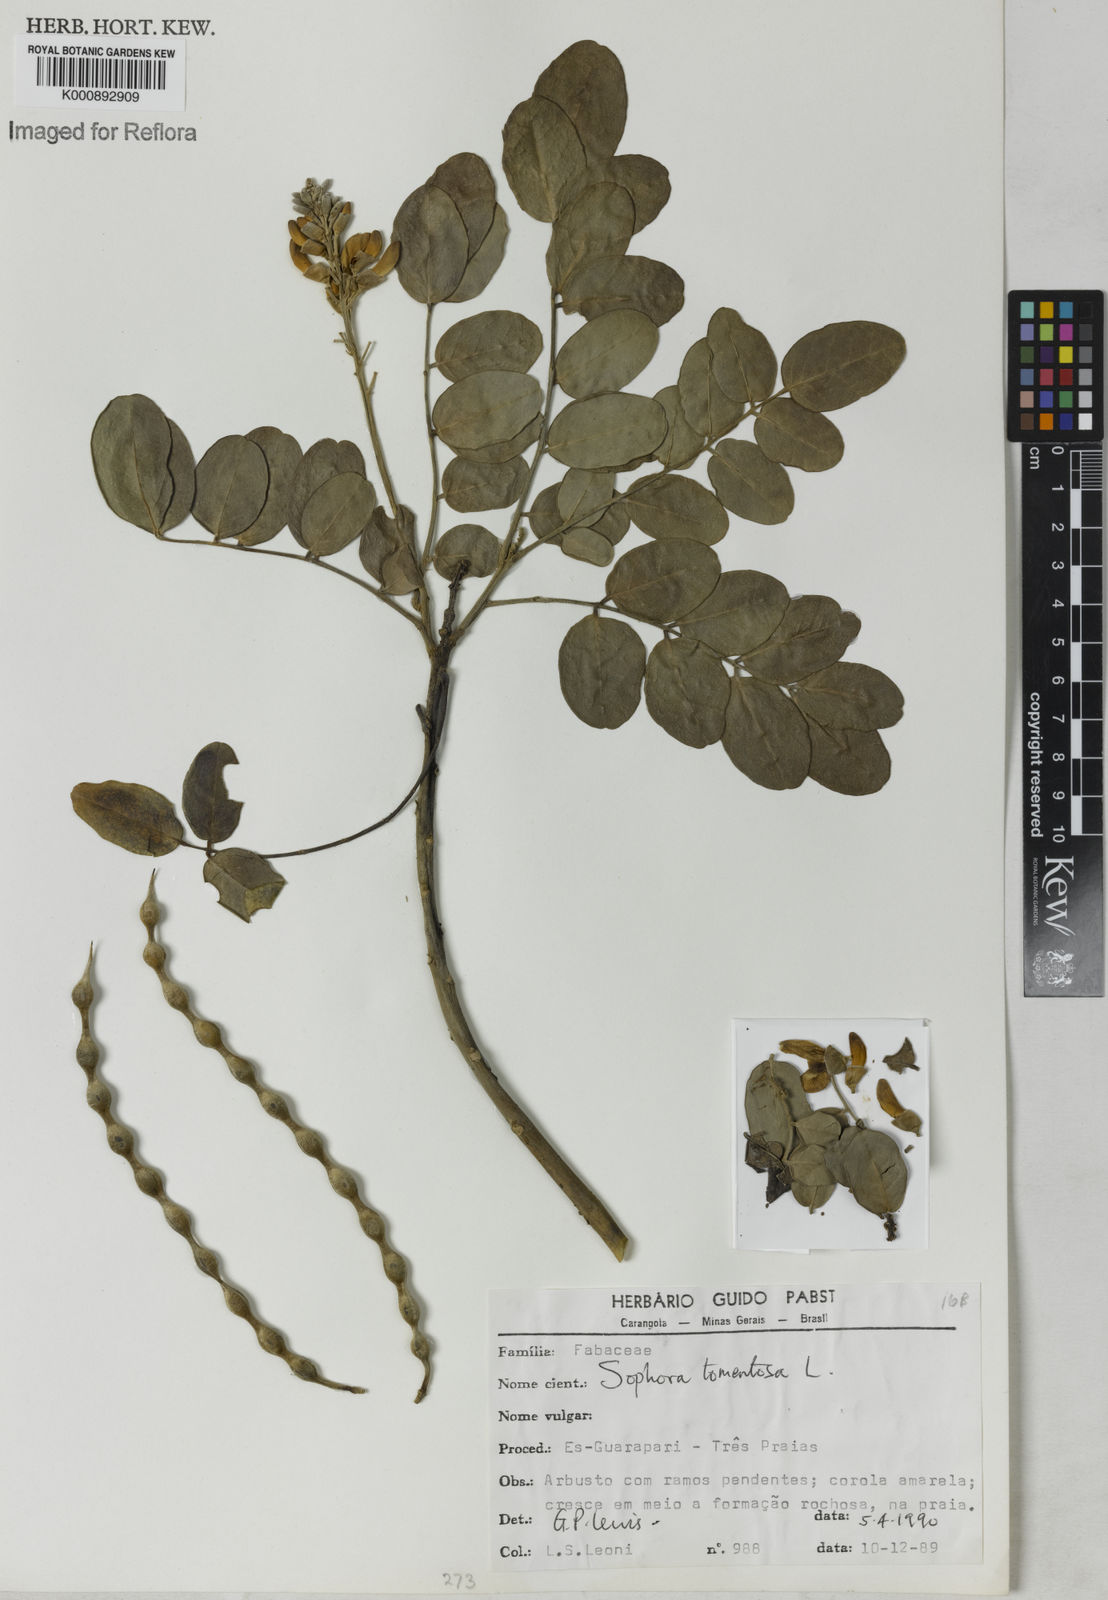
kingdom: Plantae
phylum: Tracheophyta
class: Magnoliopsida
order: Fabales
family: Fabaceae
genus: Sophora
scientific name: Sophora tomentosa
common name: Yellow necklacepod
